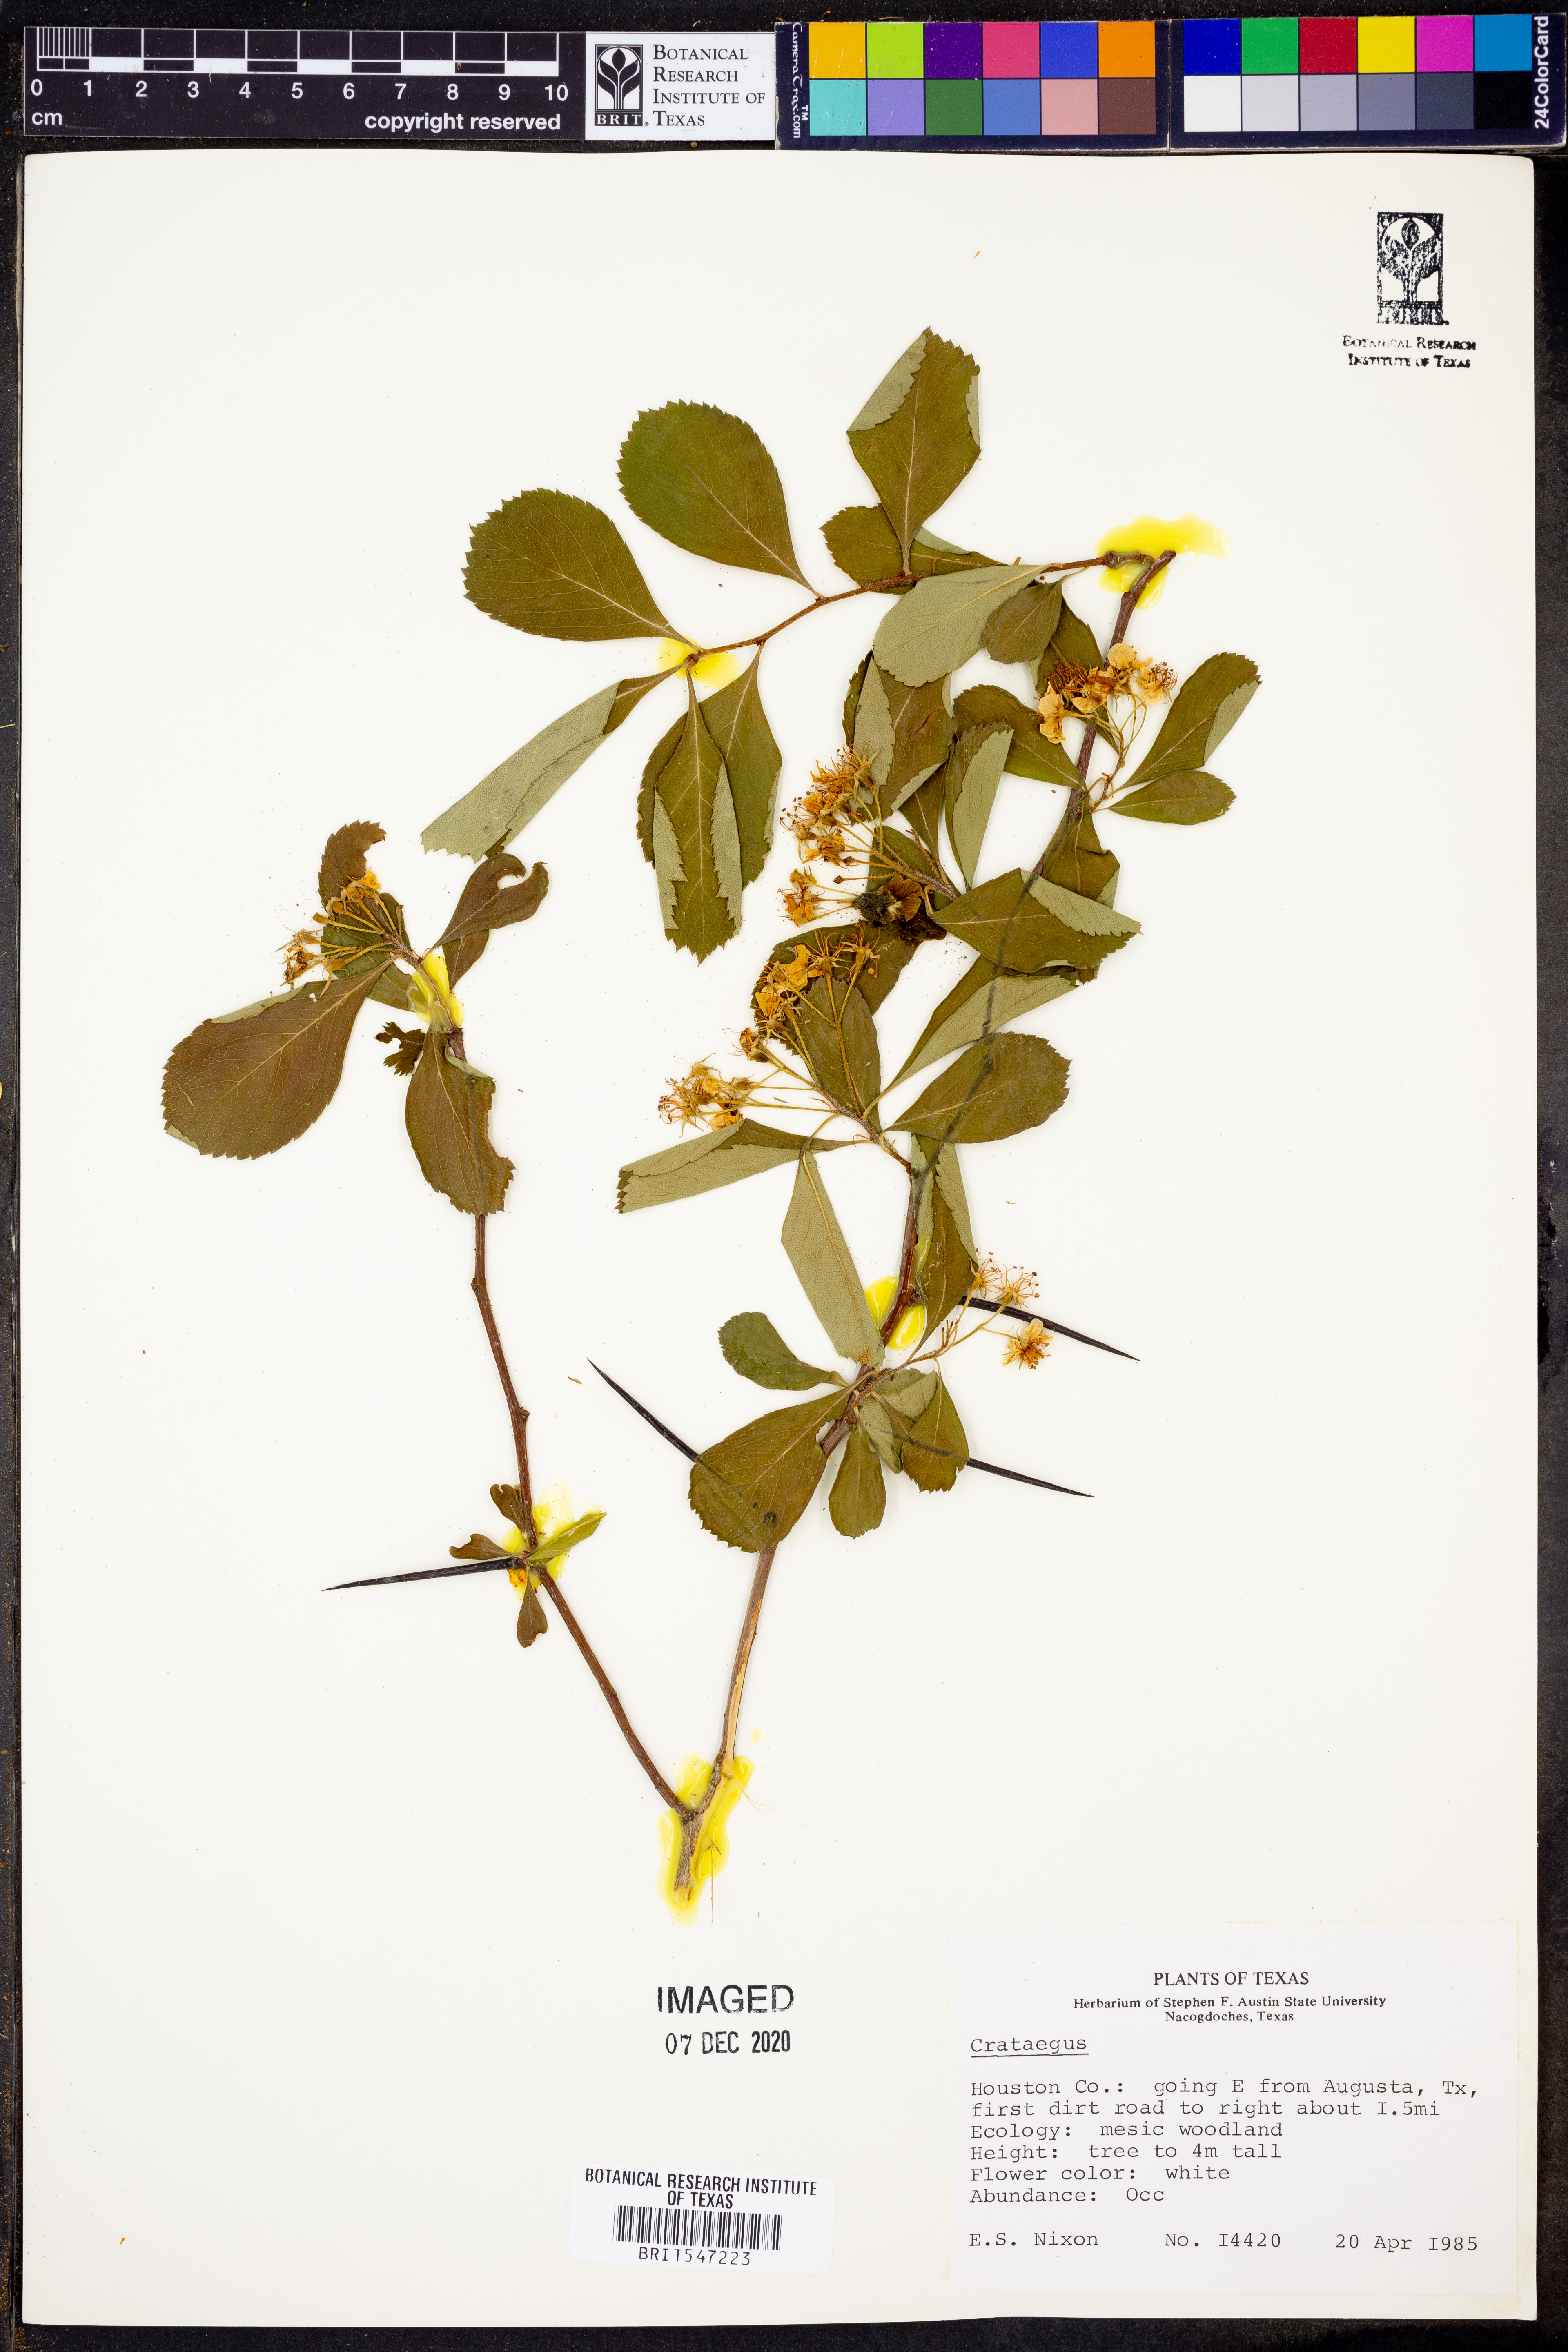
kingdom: Plantae
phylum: Tracheophyta
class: Magnoliopsida
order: Rosales
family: Rosaceae
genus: Crataegus
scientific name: Crataegus
